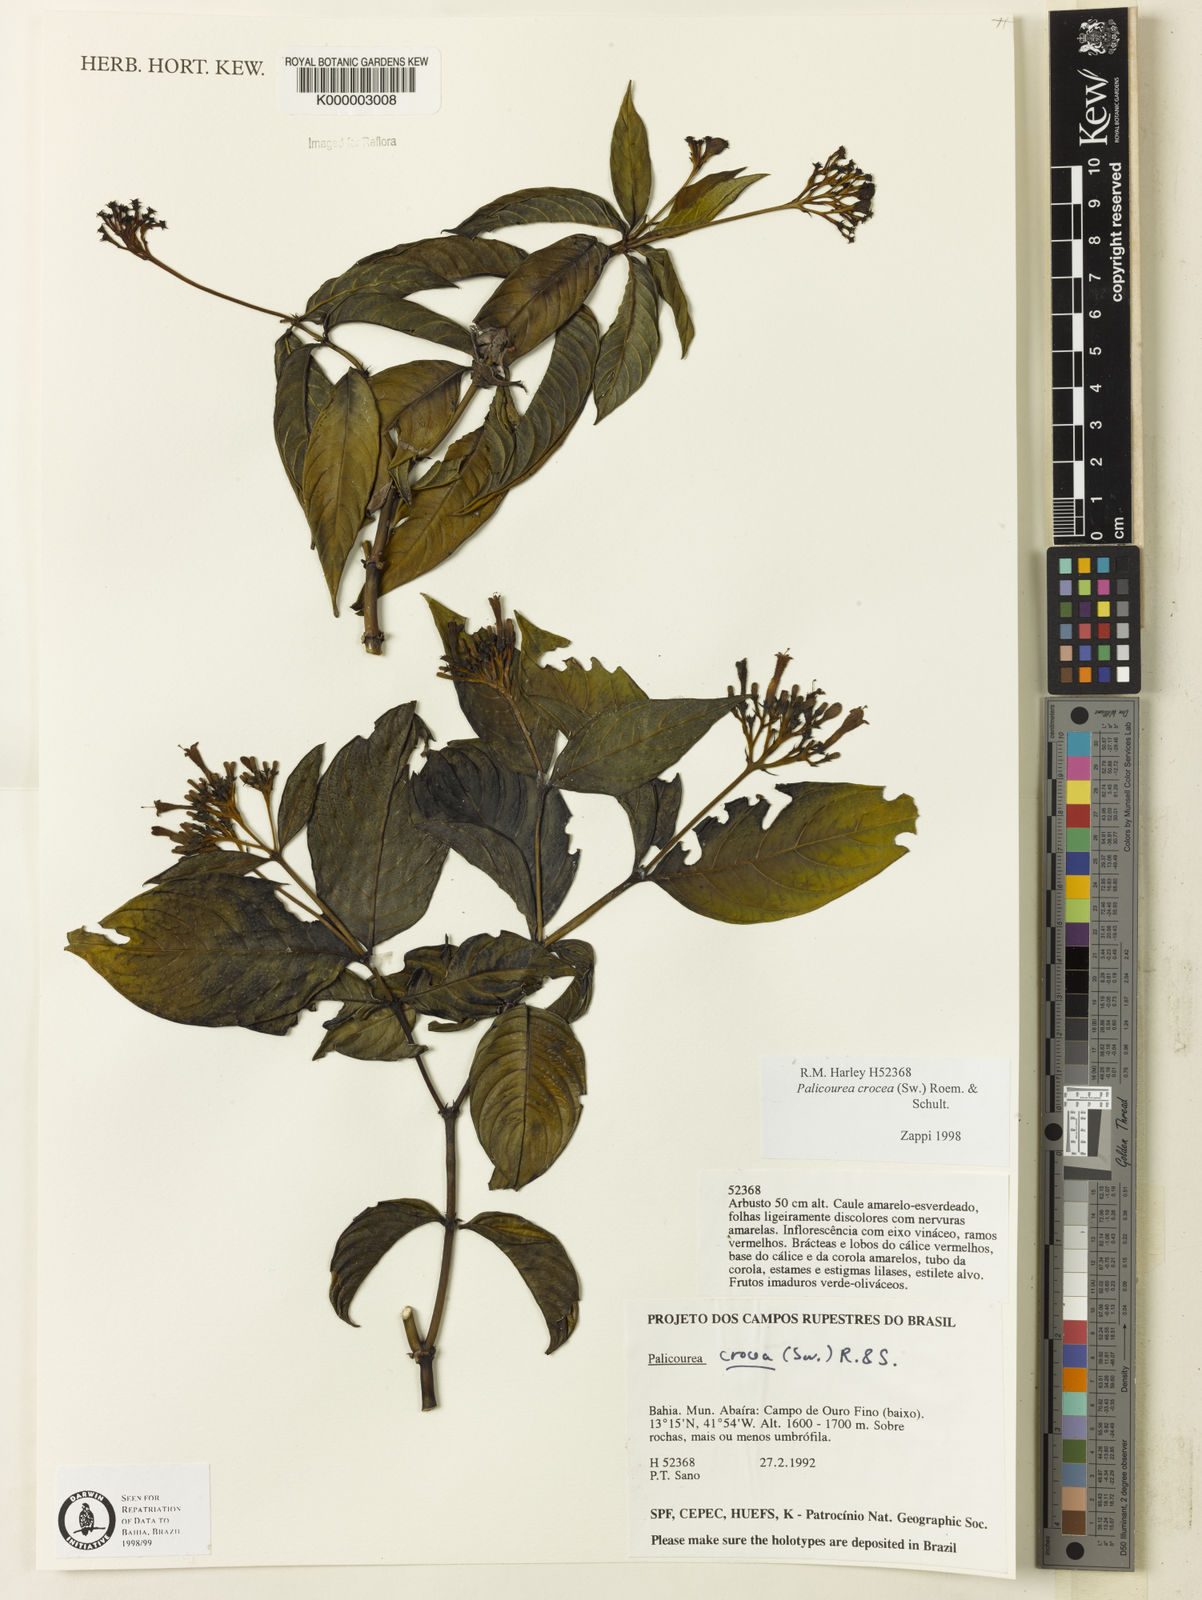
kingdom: Plantae
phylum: Tracheophyta
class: Magnoliopsida
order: Gentianales
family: Rubiaceae
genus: Palicourea
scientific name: Palicourea marcgravii
